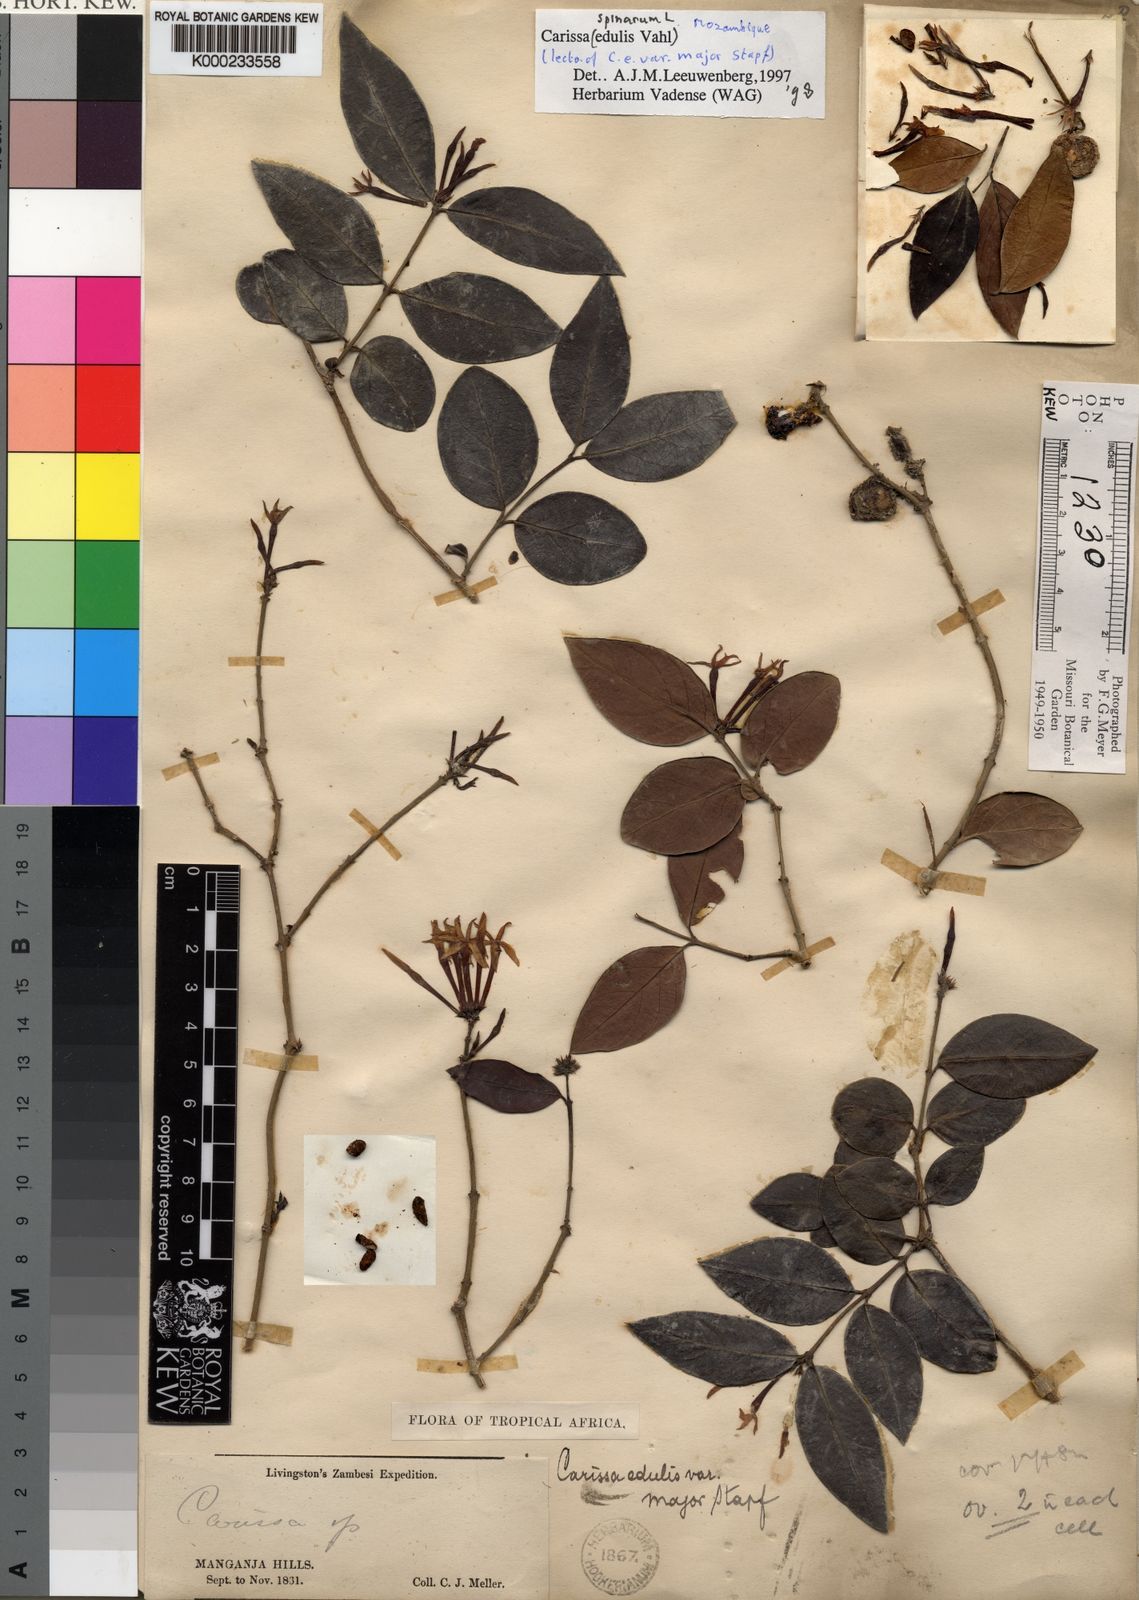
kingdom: Plantae
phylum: Tracheophyta
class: Magnoliopsida
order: Gentianales
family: Apocynaceae
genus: Carissa
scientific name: Carissa spinarum
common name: Egyptian carissa
